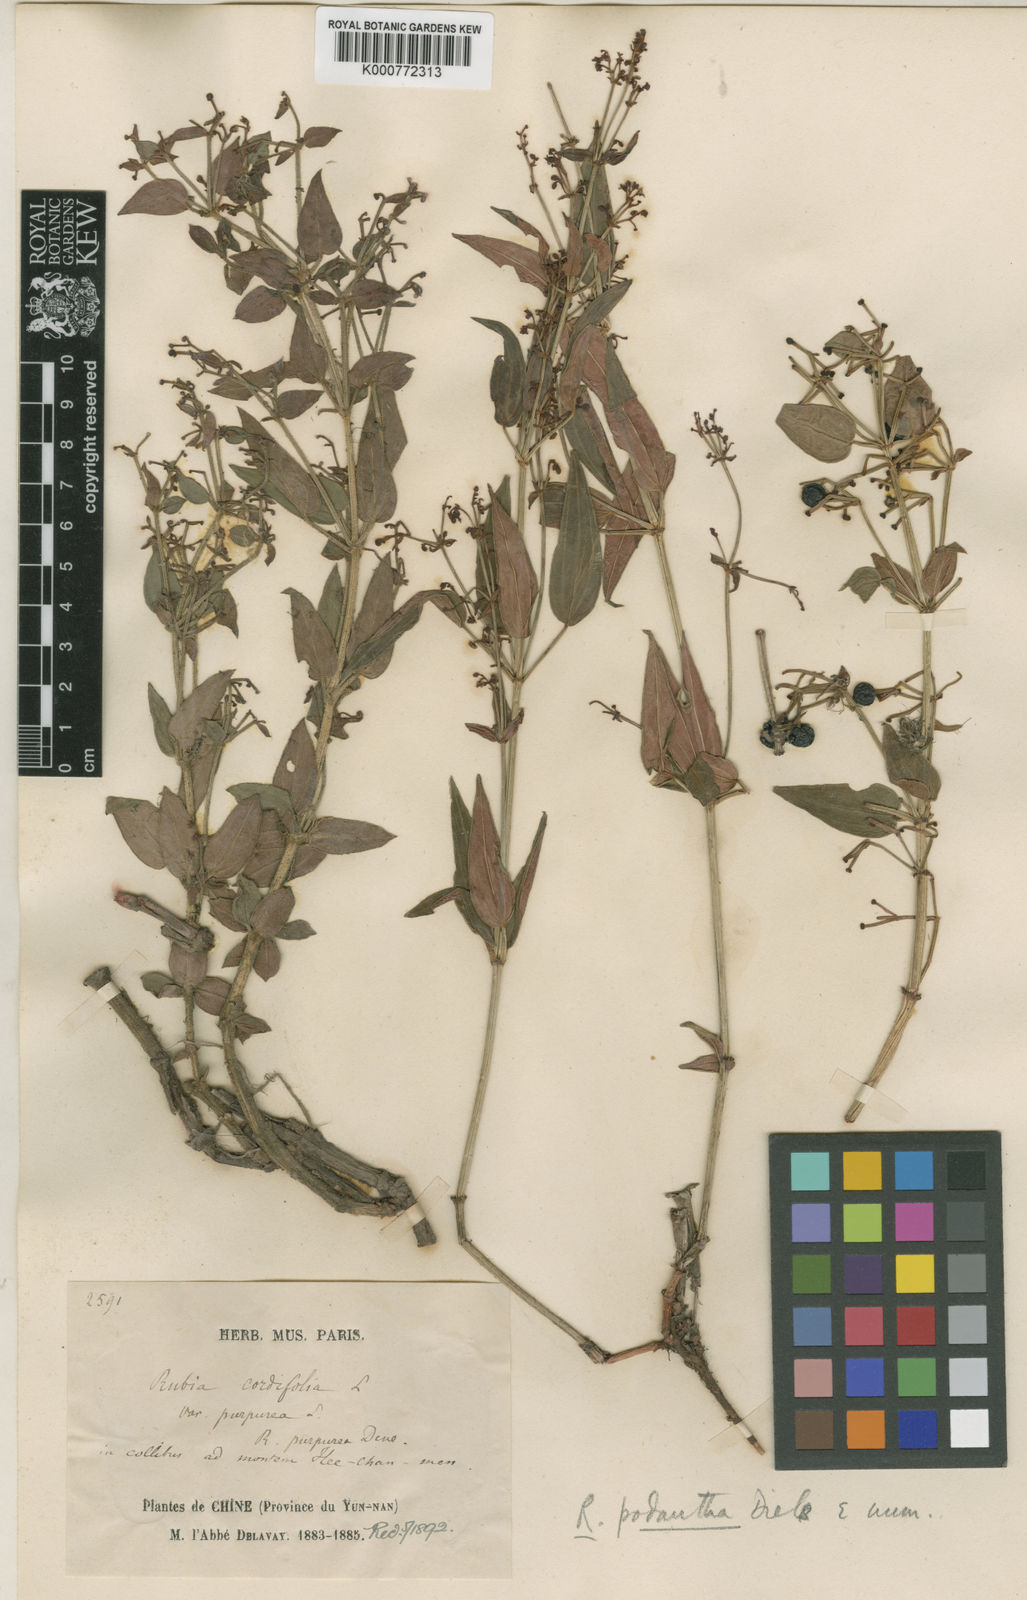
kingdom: Plantae
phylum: Tracheophyta
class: Magnoliopsida
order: Gentianales
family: Rubiaceae
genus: Rubia
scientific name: Rubia podantha
